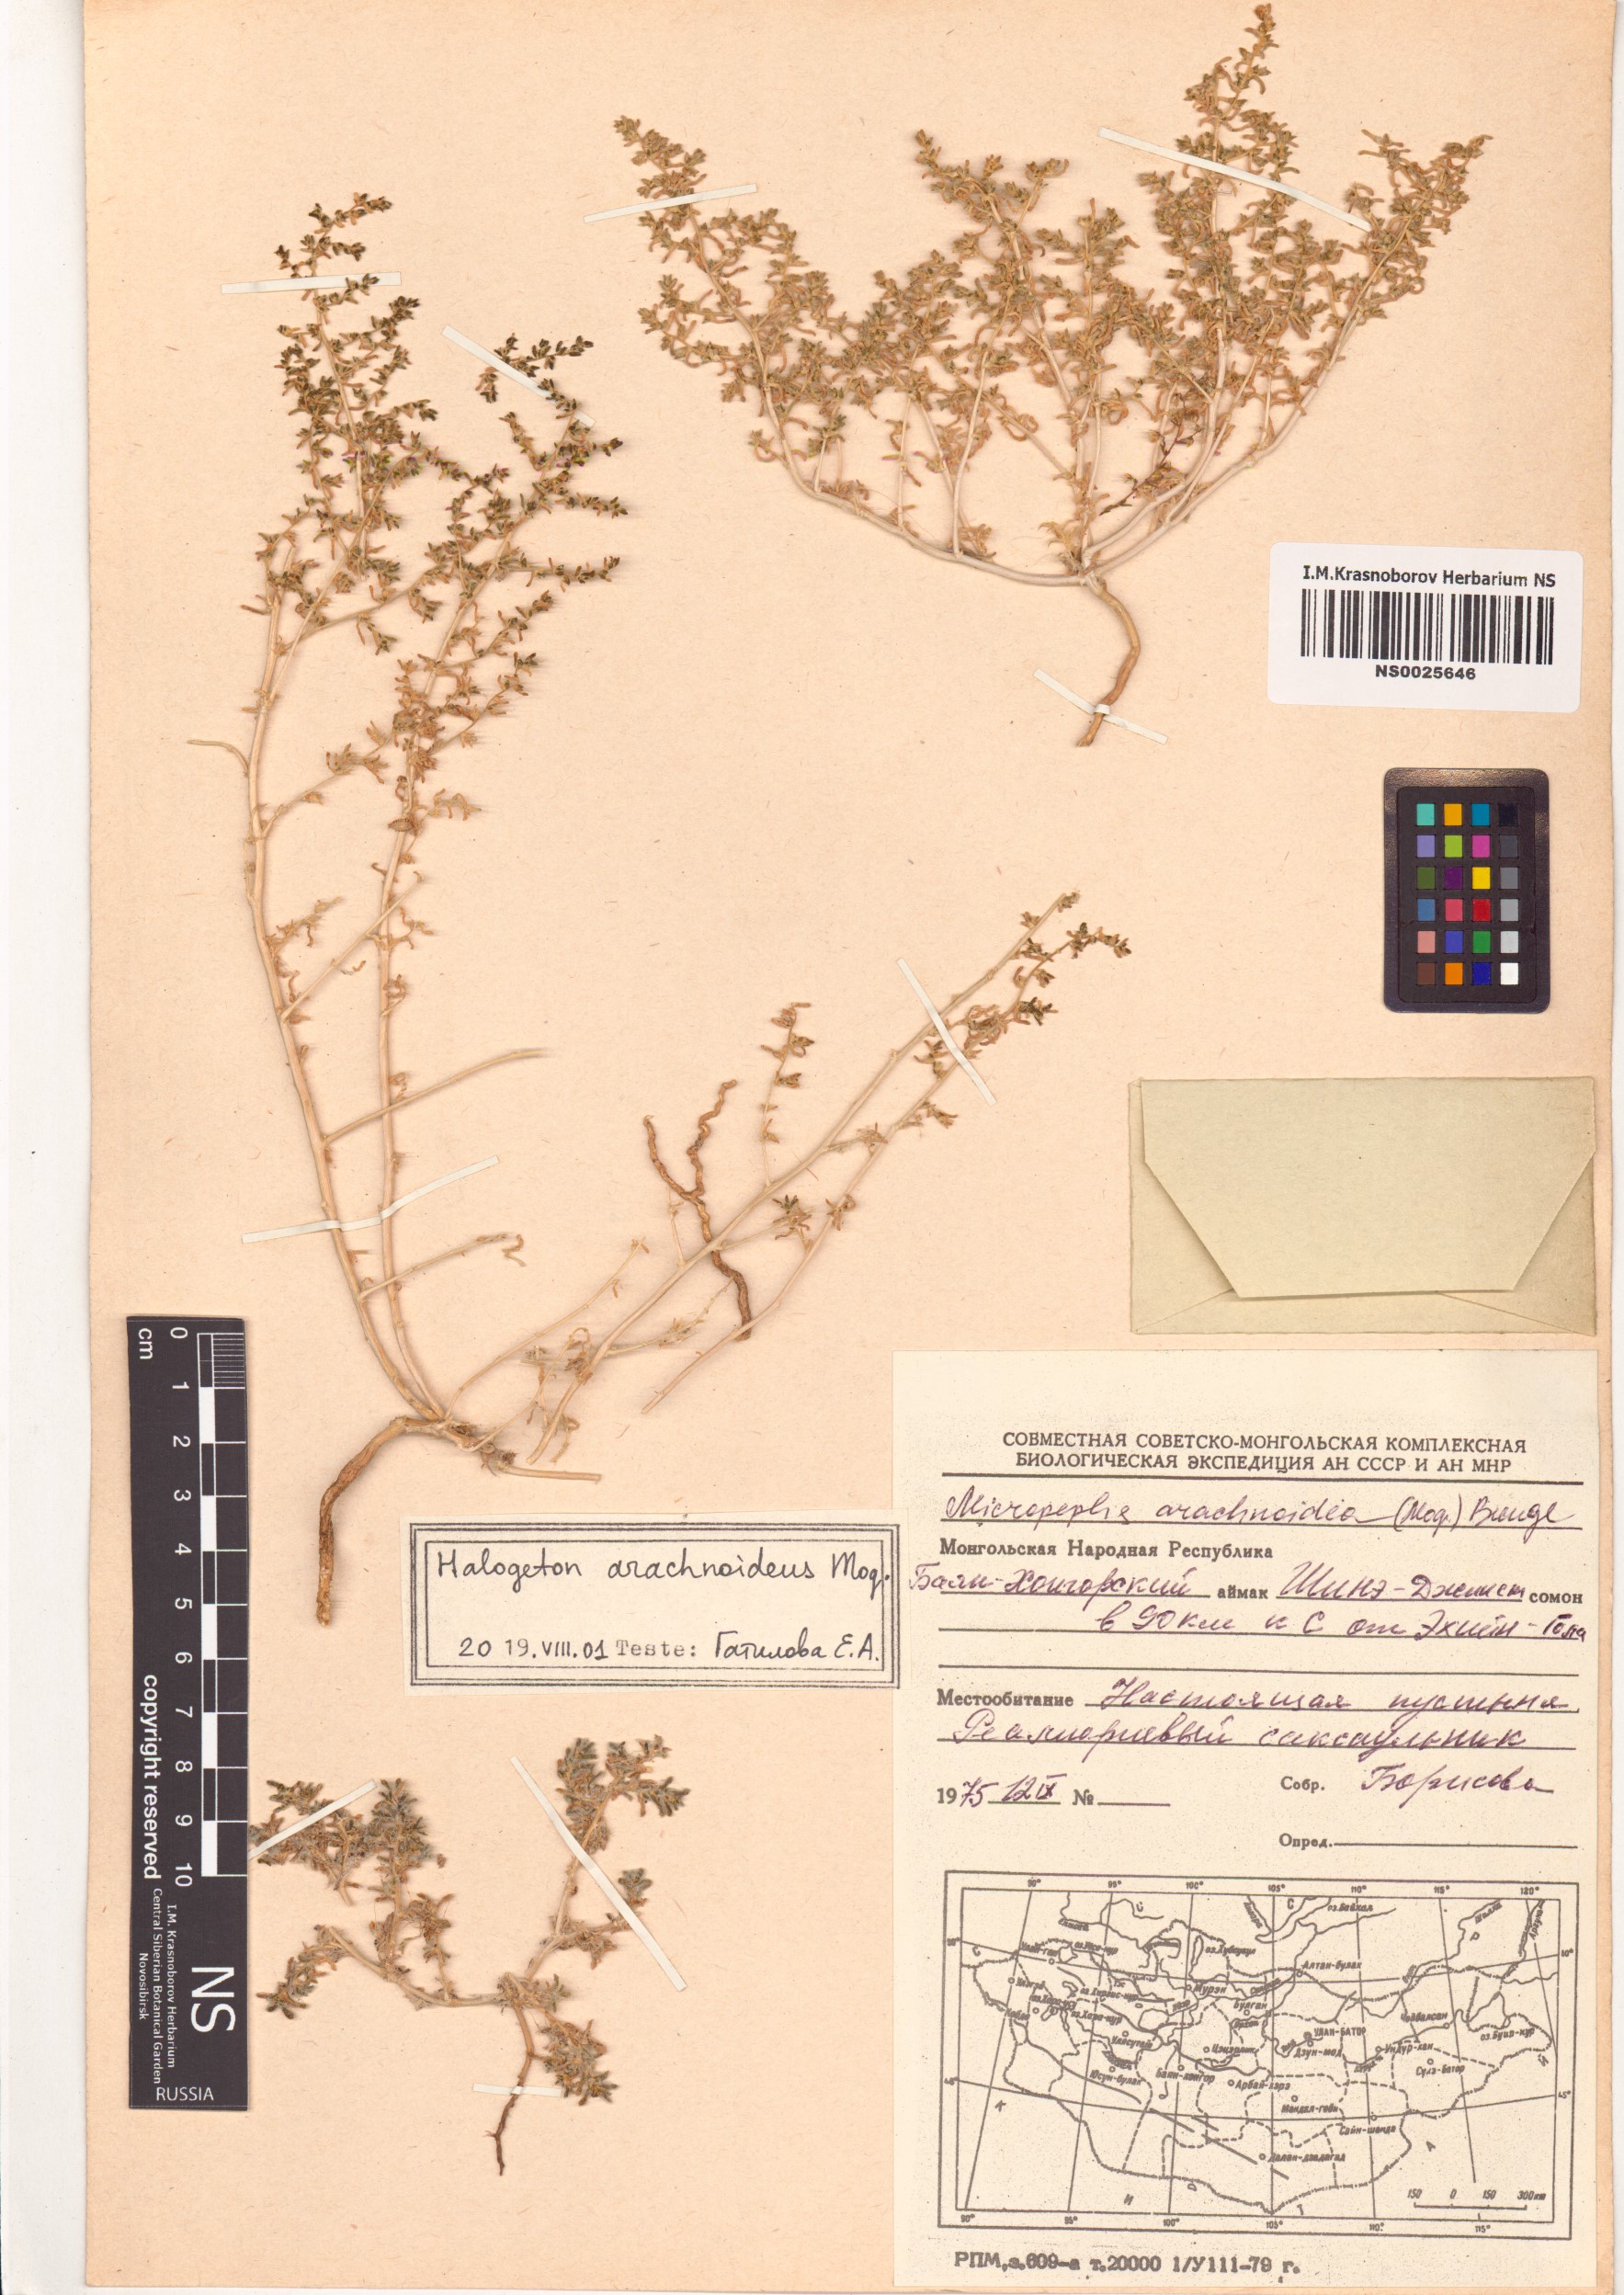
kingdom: Plantae
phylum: Tracheophyta
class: Magnoliopsida
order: Caryophyllales
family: Amaranthaceae
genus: Halogeton
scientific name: Halogeton arachnoideus
